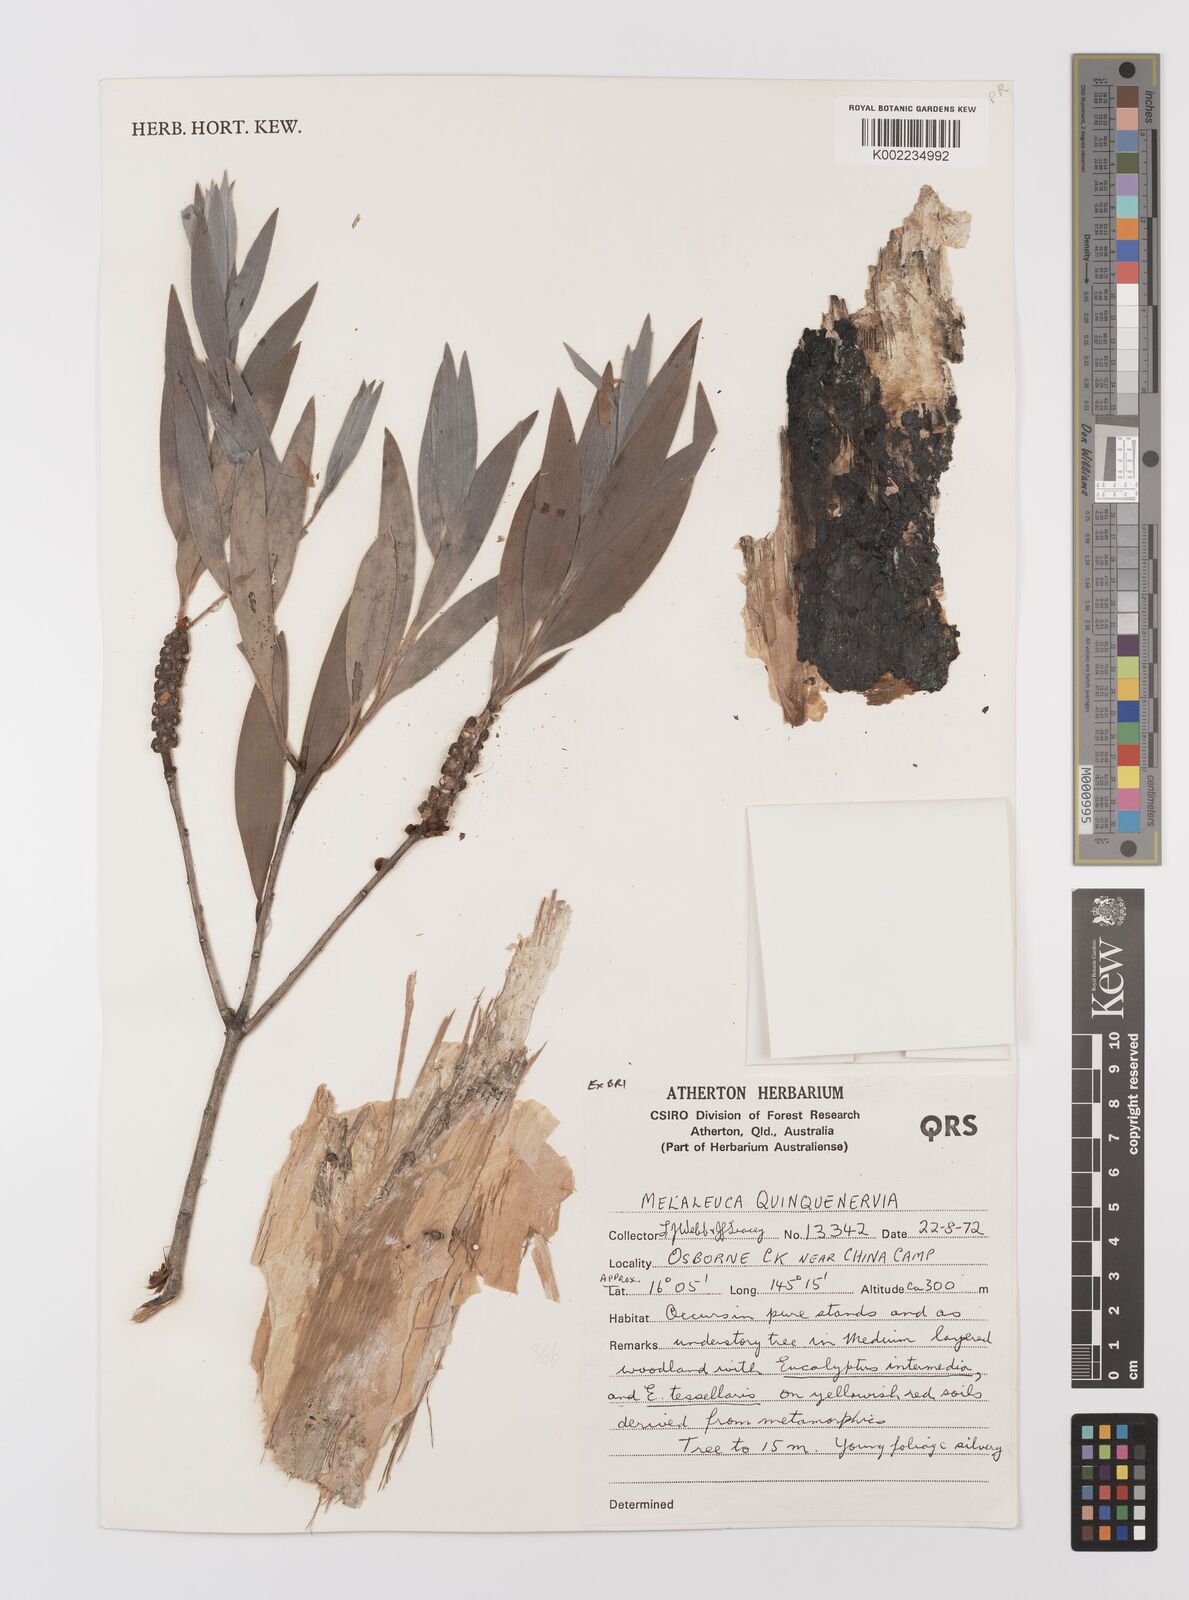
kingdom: Plantae
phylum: Tracheophyta
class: Magnoliopsida
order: Myrtales
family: Myrtaceae
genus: Melaleuca
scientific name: Melaleuca quinquenervia
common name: Punktree
